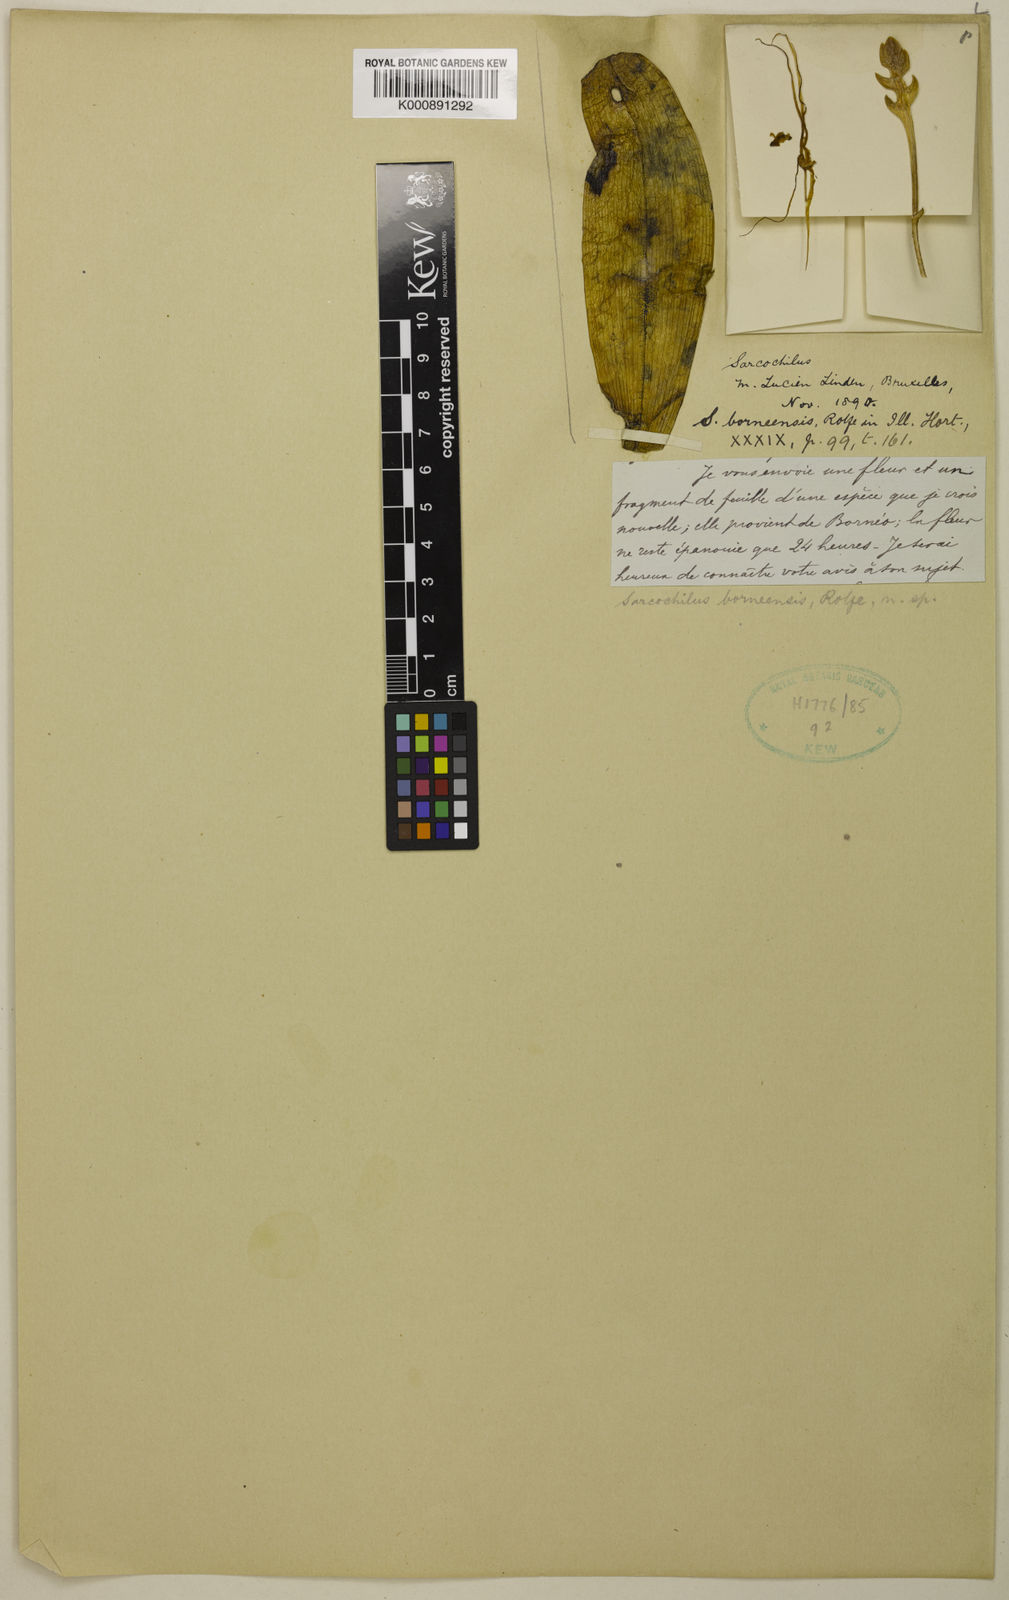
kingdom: Plantae
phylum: Tracheophyta
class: Liliopsida
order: Asparagales
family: Orchidaceae
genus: Thrixspermum
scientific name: Thrixspermum borneense
